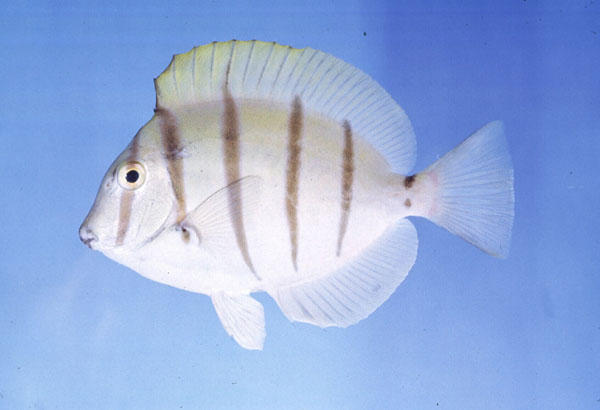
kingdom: Animalia
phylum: Chordata
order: Perciformes
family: Acanthuridae
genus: Acanthurus
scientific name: Acanthurus triostegus
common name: Convict surgeonfish
